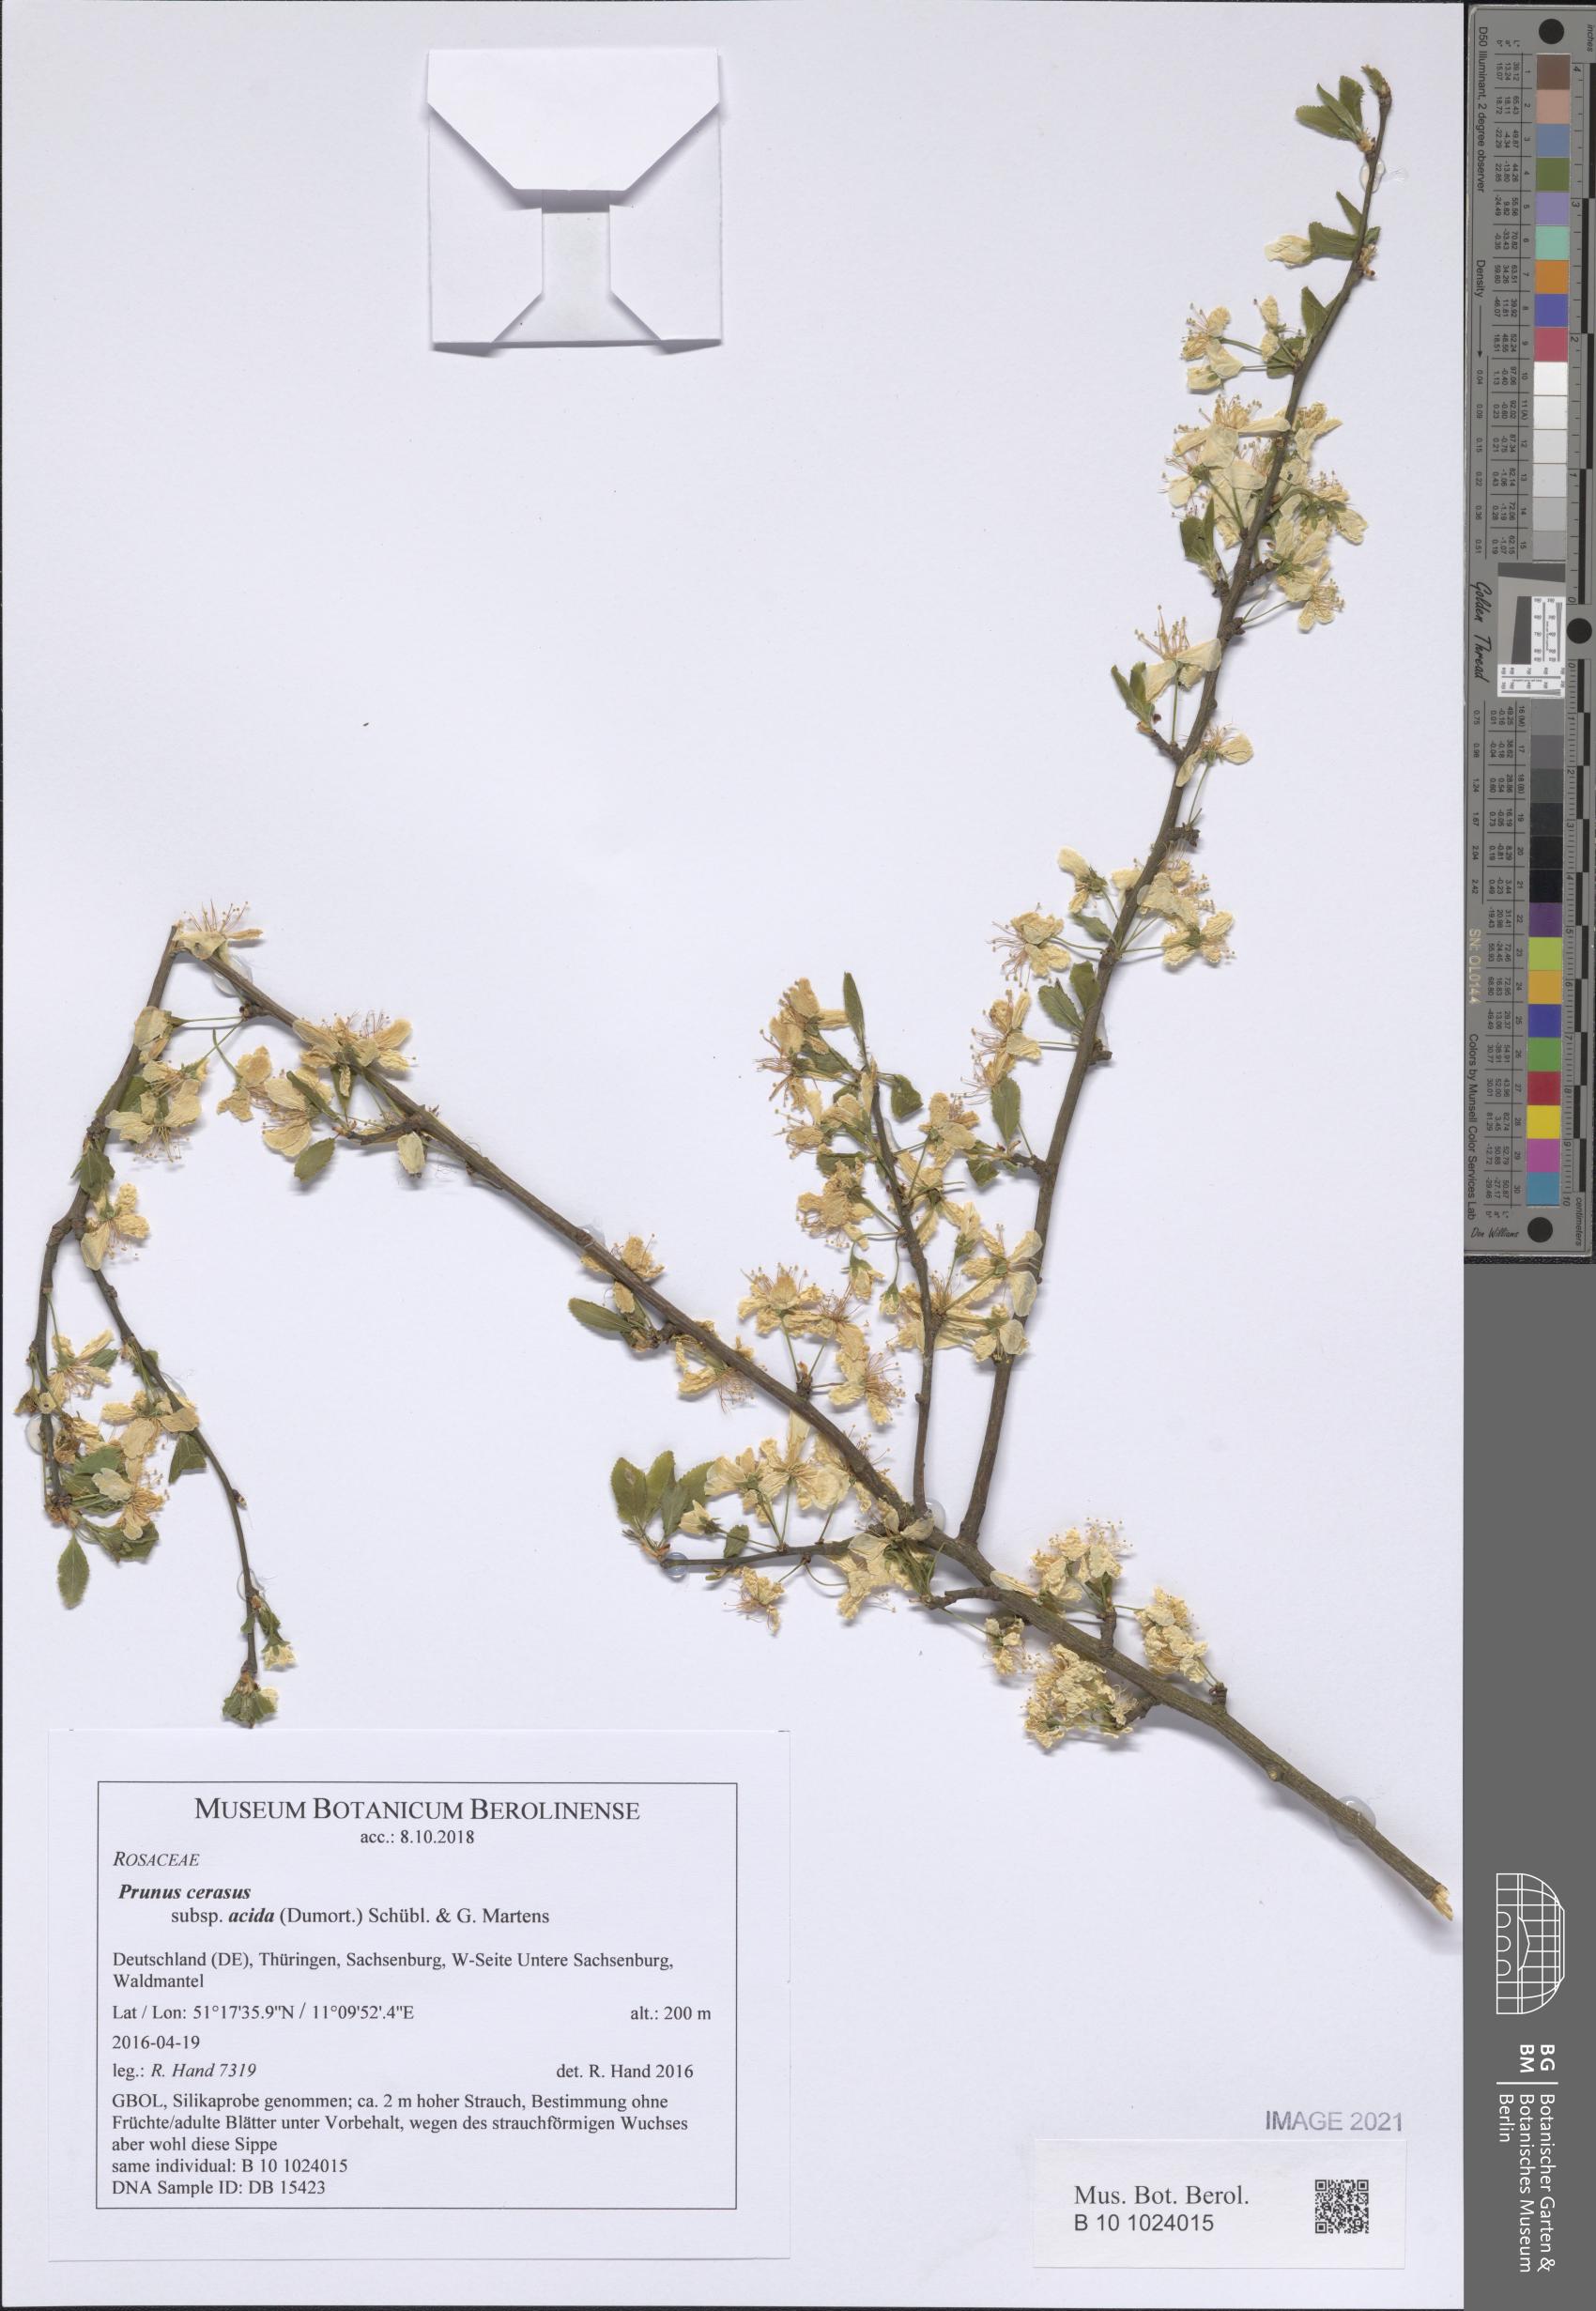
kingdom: Plantae
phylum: Tracheophyta
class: Magnoliopsida
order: Rosales
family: Rosaceae
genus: Prunus
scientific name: Prunus cerasus
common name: Morello cherry
